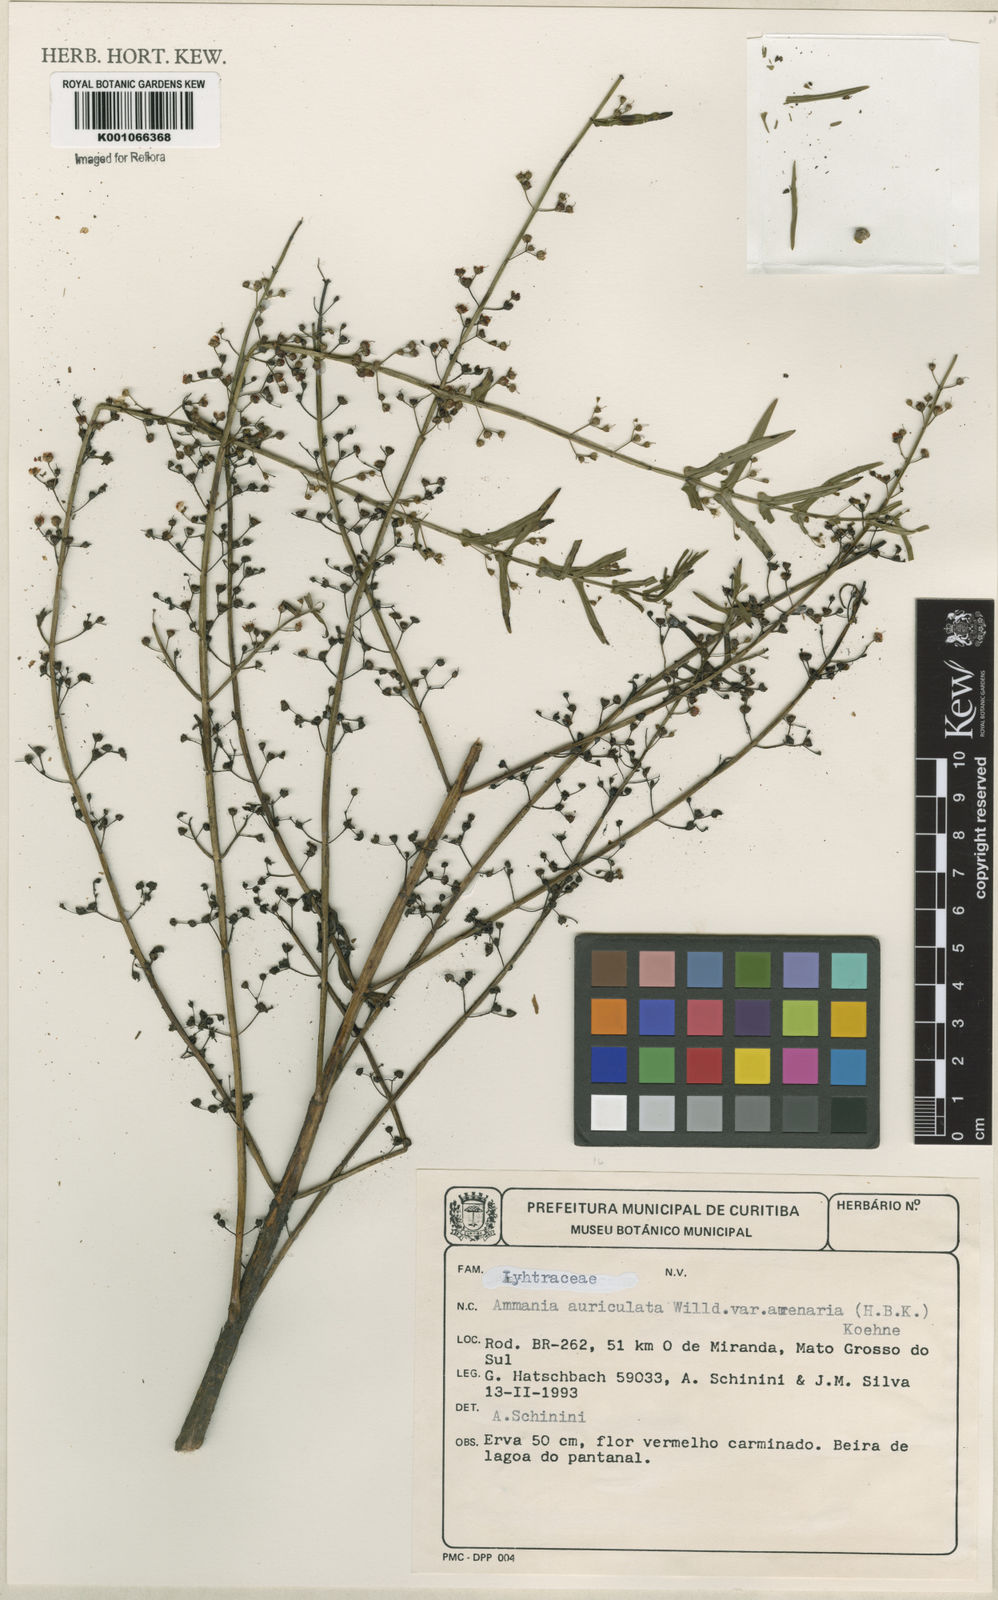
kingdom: Plantae
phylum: Tracheophyta
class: Magnoliopsida
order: Myrtales
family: Lythraceae
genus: Ammannia
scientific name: Ammannia auriculata
